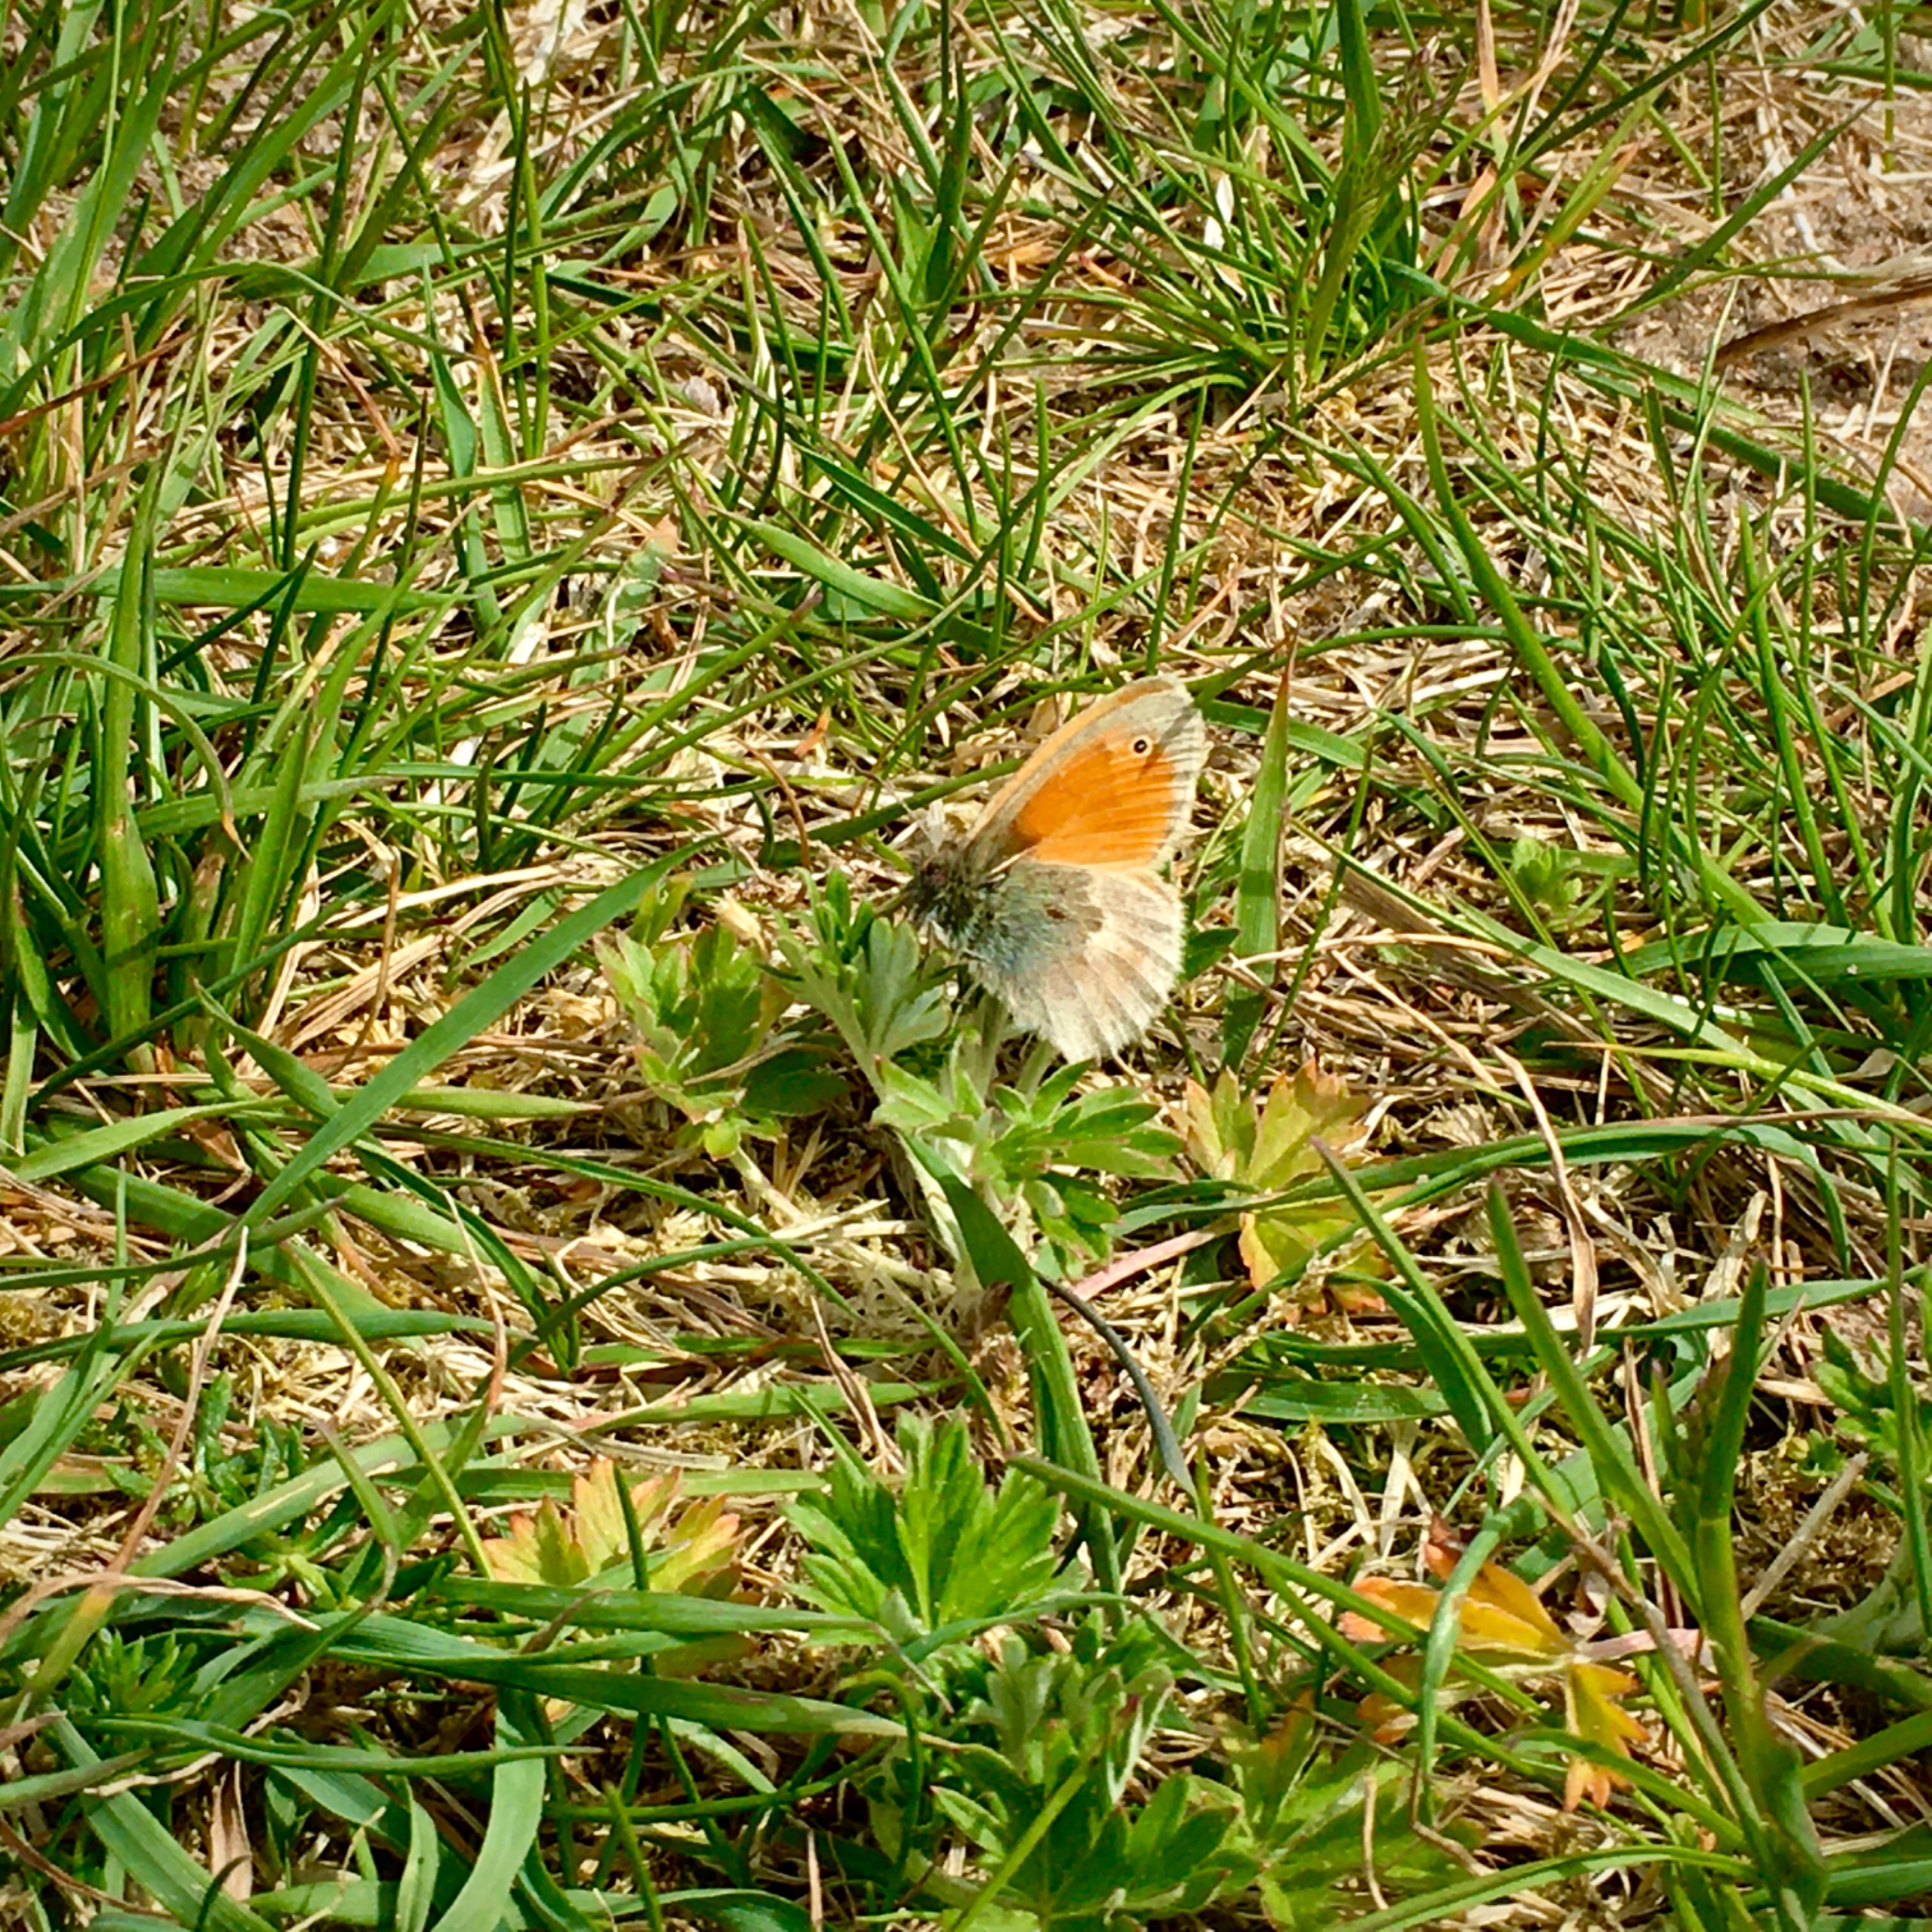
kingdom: Animalia
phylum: Arthropoda
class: Insecta
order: Lepidoptera
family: Nymphalidae
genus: Coenonympha
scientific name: Coenonympha pamphilus
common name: Okkergul randøje
